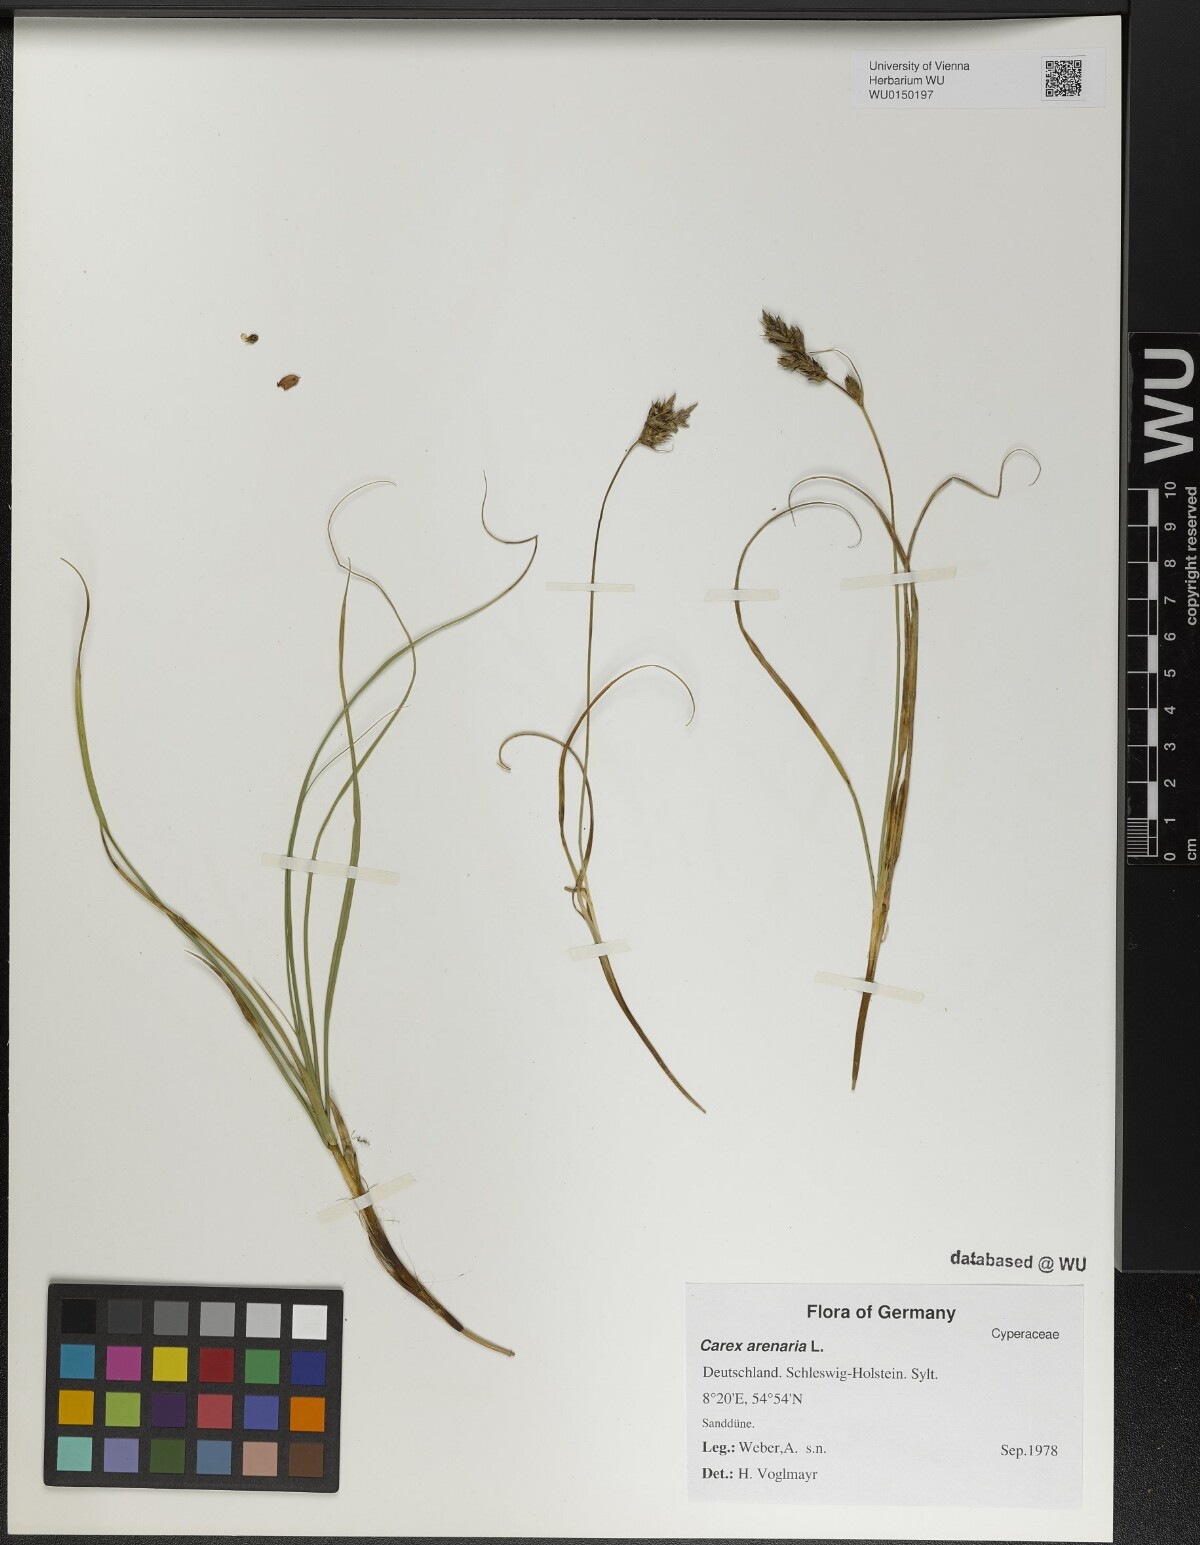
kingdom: Plantae
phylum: Tracheophyta
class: Liliopsida
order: Poales
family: Cyperaceae
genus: Carex
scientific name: Carex arenaria
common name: Sand sedge
